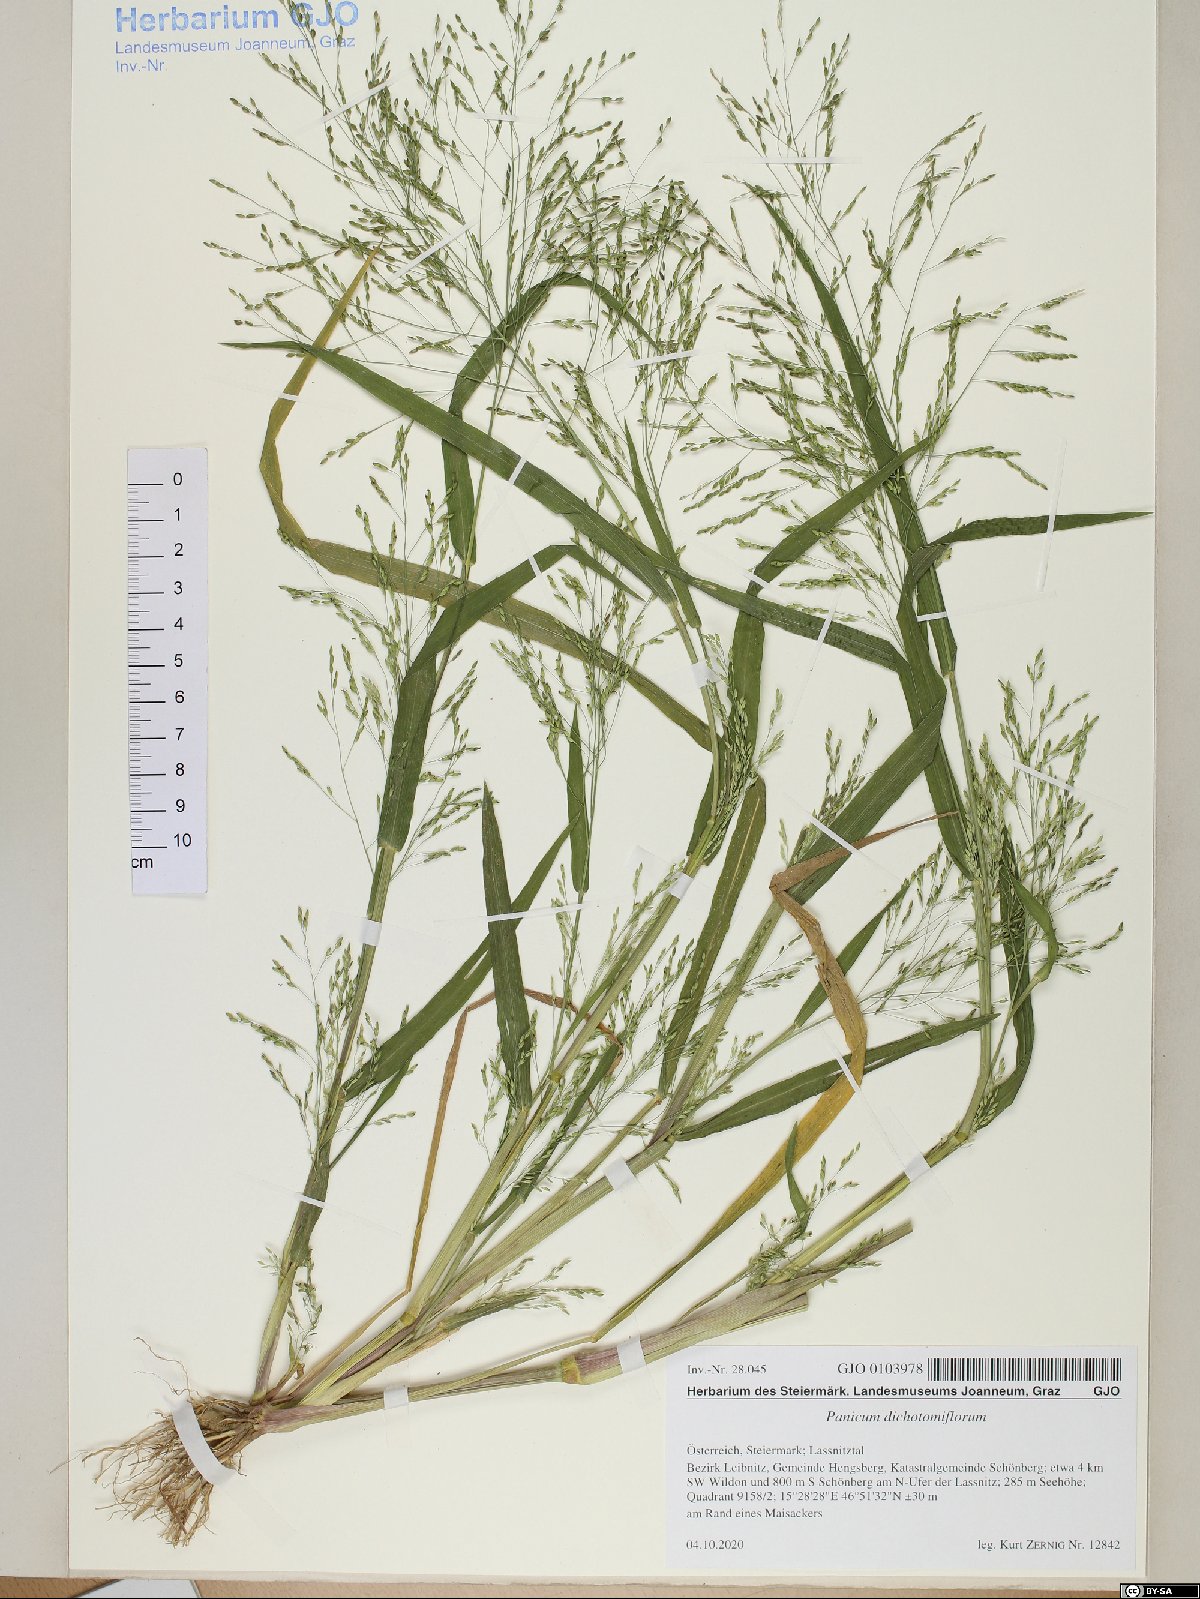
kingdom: Plantae
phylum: Tracheophyta
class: Liliopsida
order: Poales
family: Poaceae
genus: Panicum
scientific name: Panicum dichotomiflorum
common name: Autumn millet
